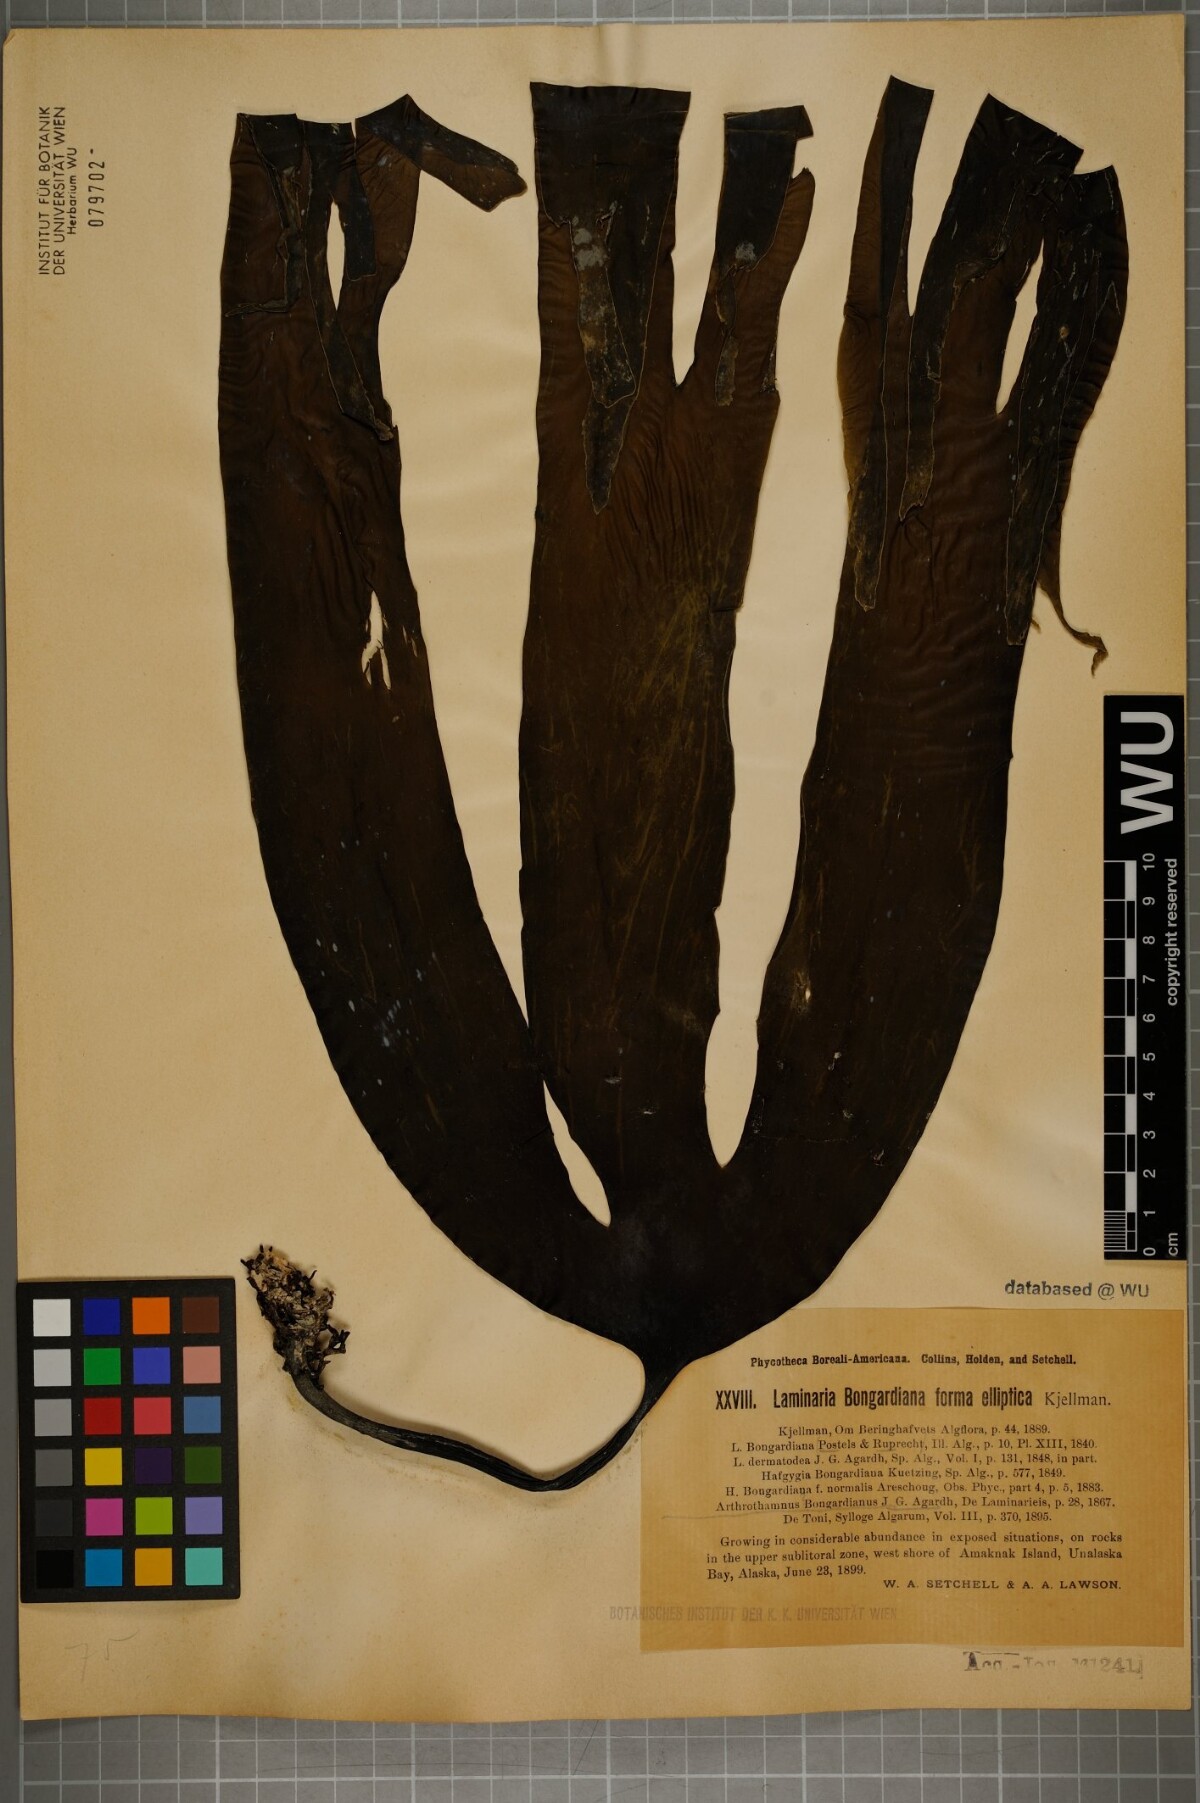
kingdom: Chromista
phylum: Ochrophyta
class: Phaeophyceae
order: Laminariales
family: Laminariaceae
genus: Arthrothamnus
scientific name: Arthrothamnus
